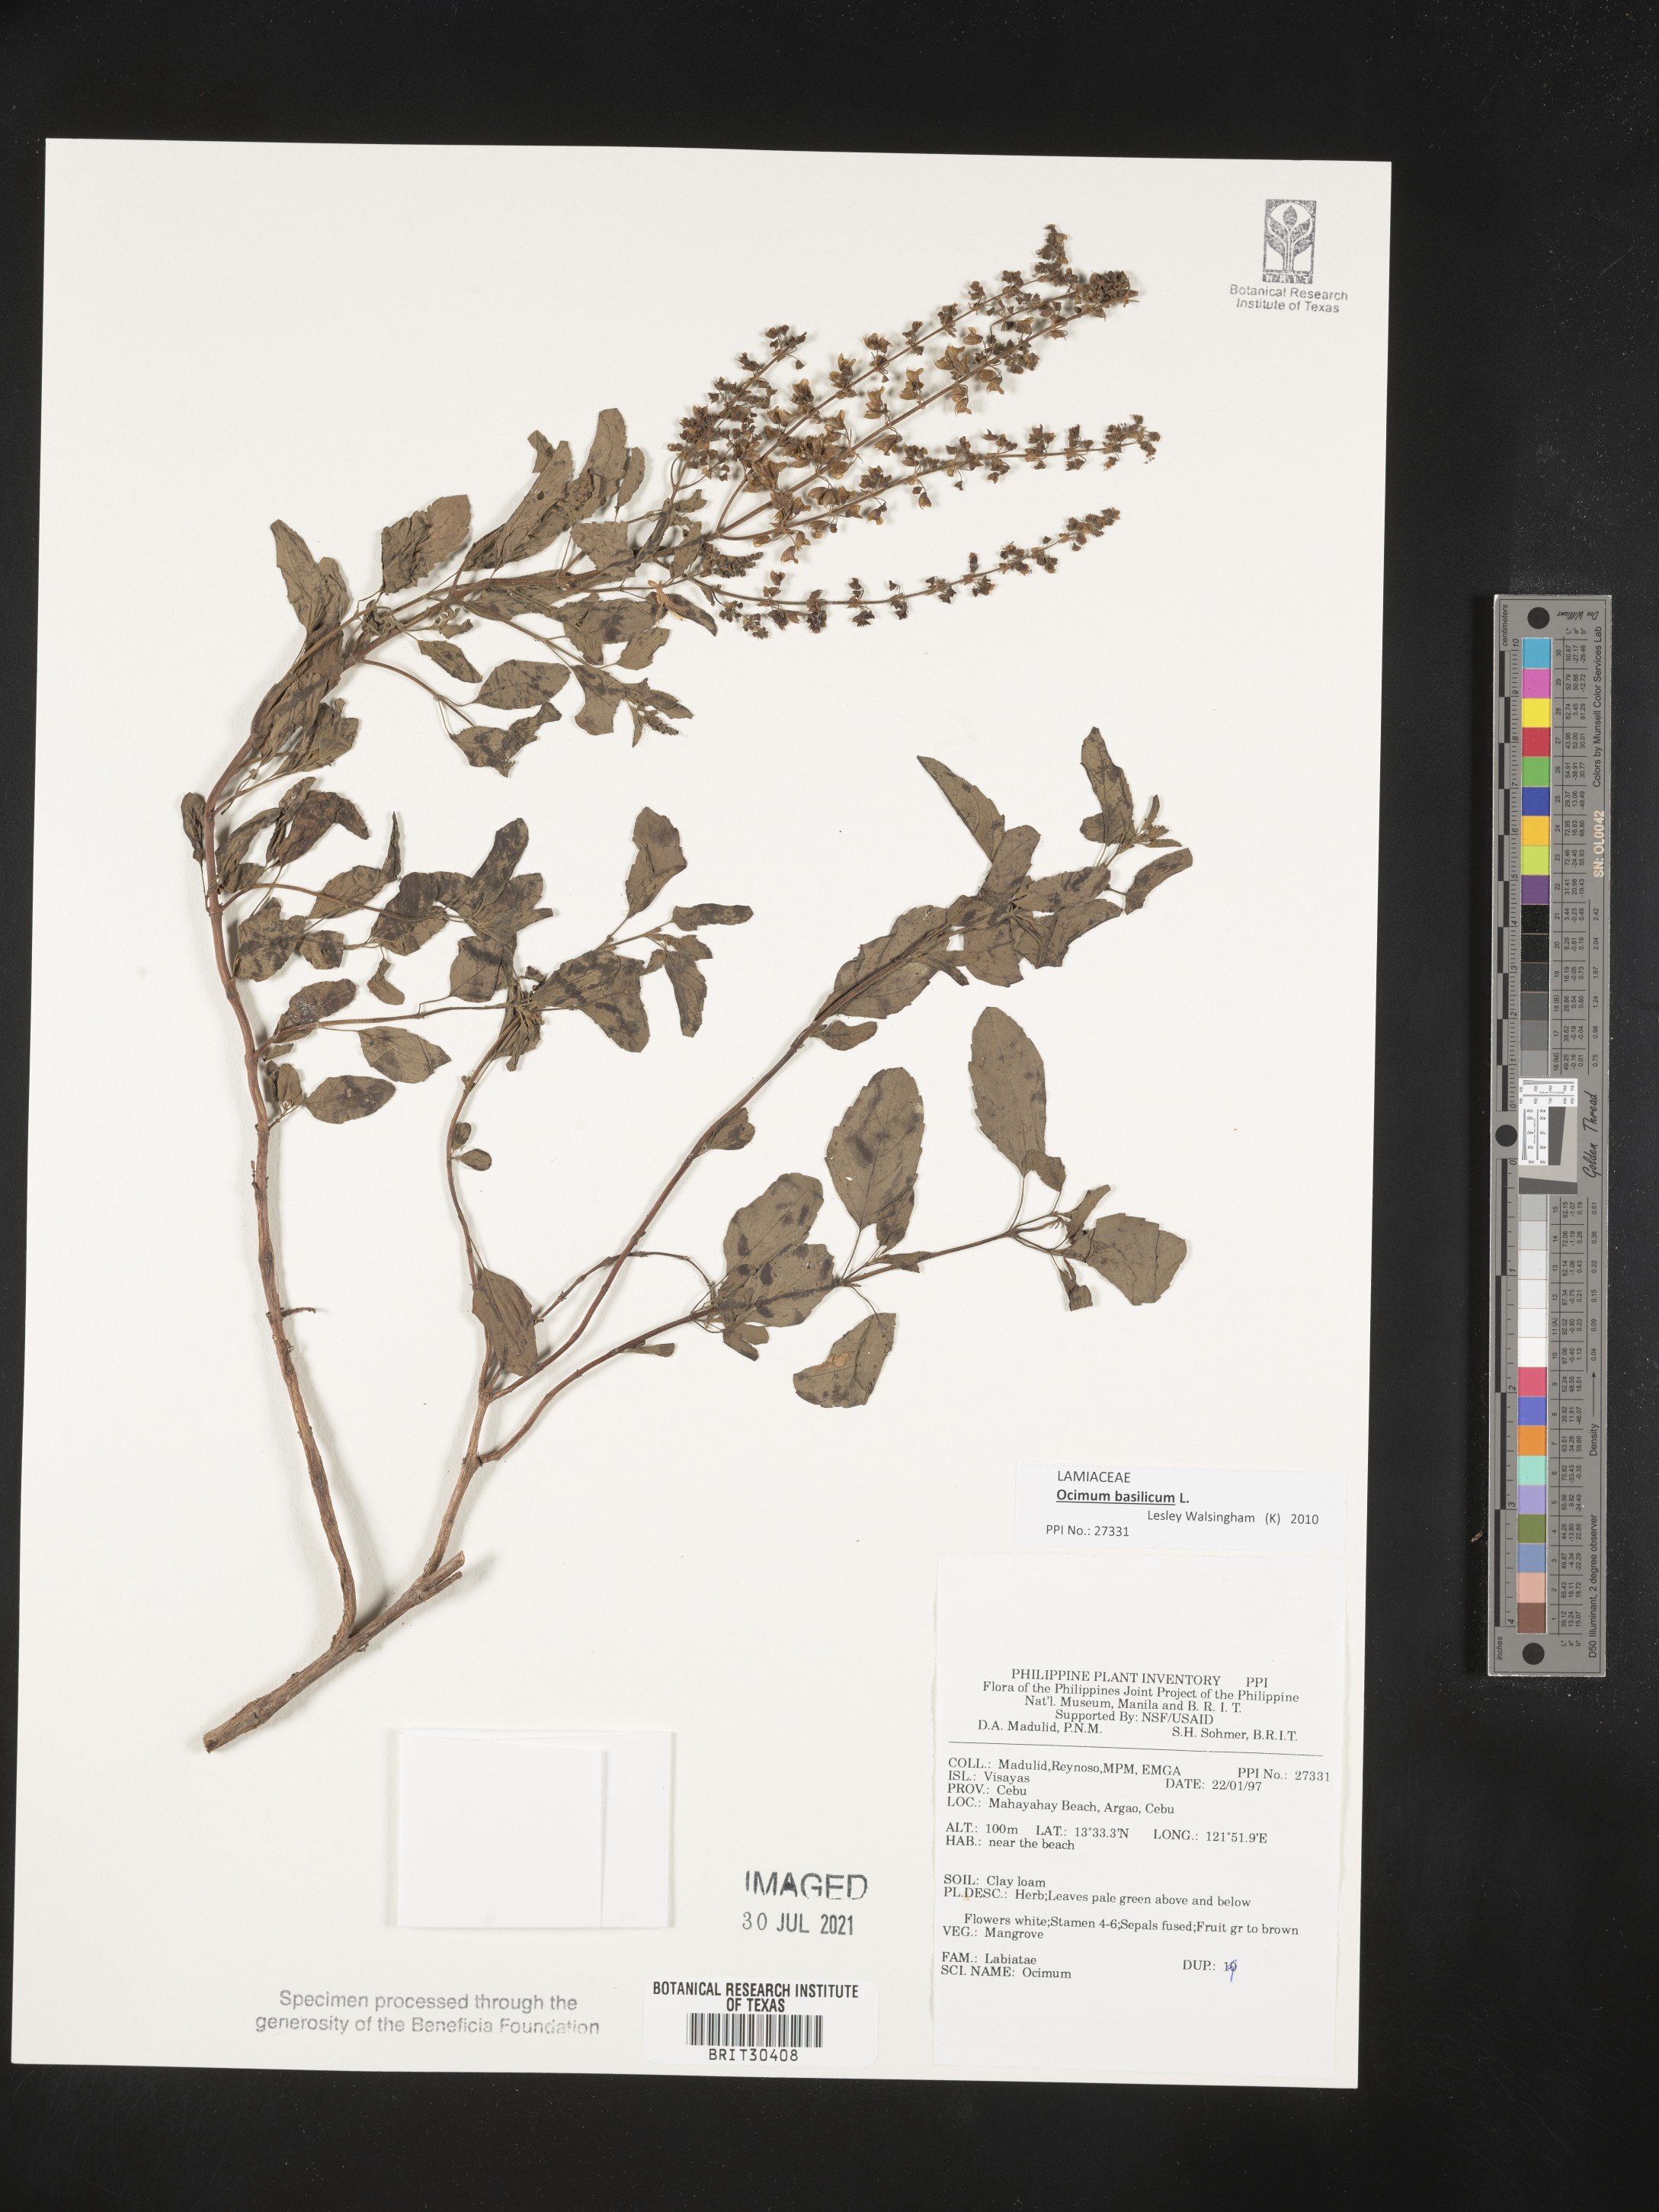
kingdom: Plantae
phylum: Tracheophyta
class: Magnoliopsida
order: Lamiales
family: Lamiaceae
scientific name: Lamiaceae
